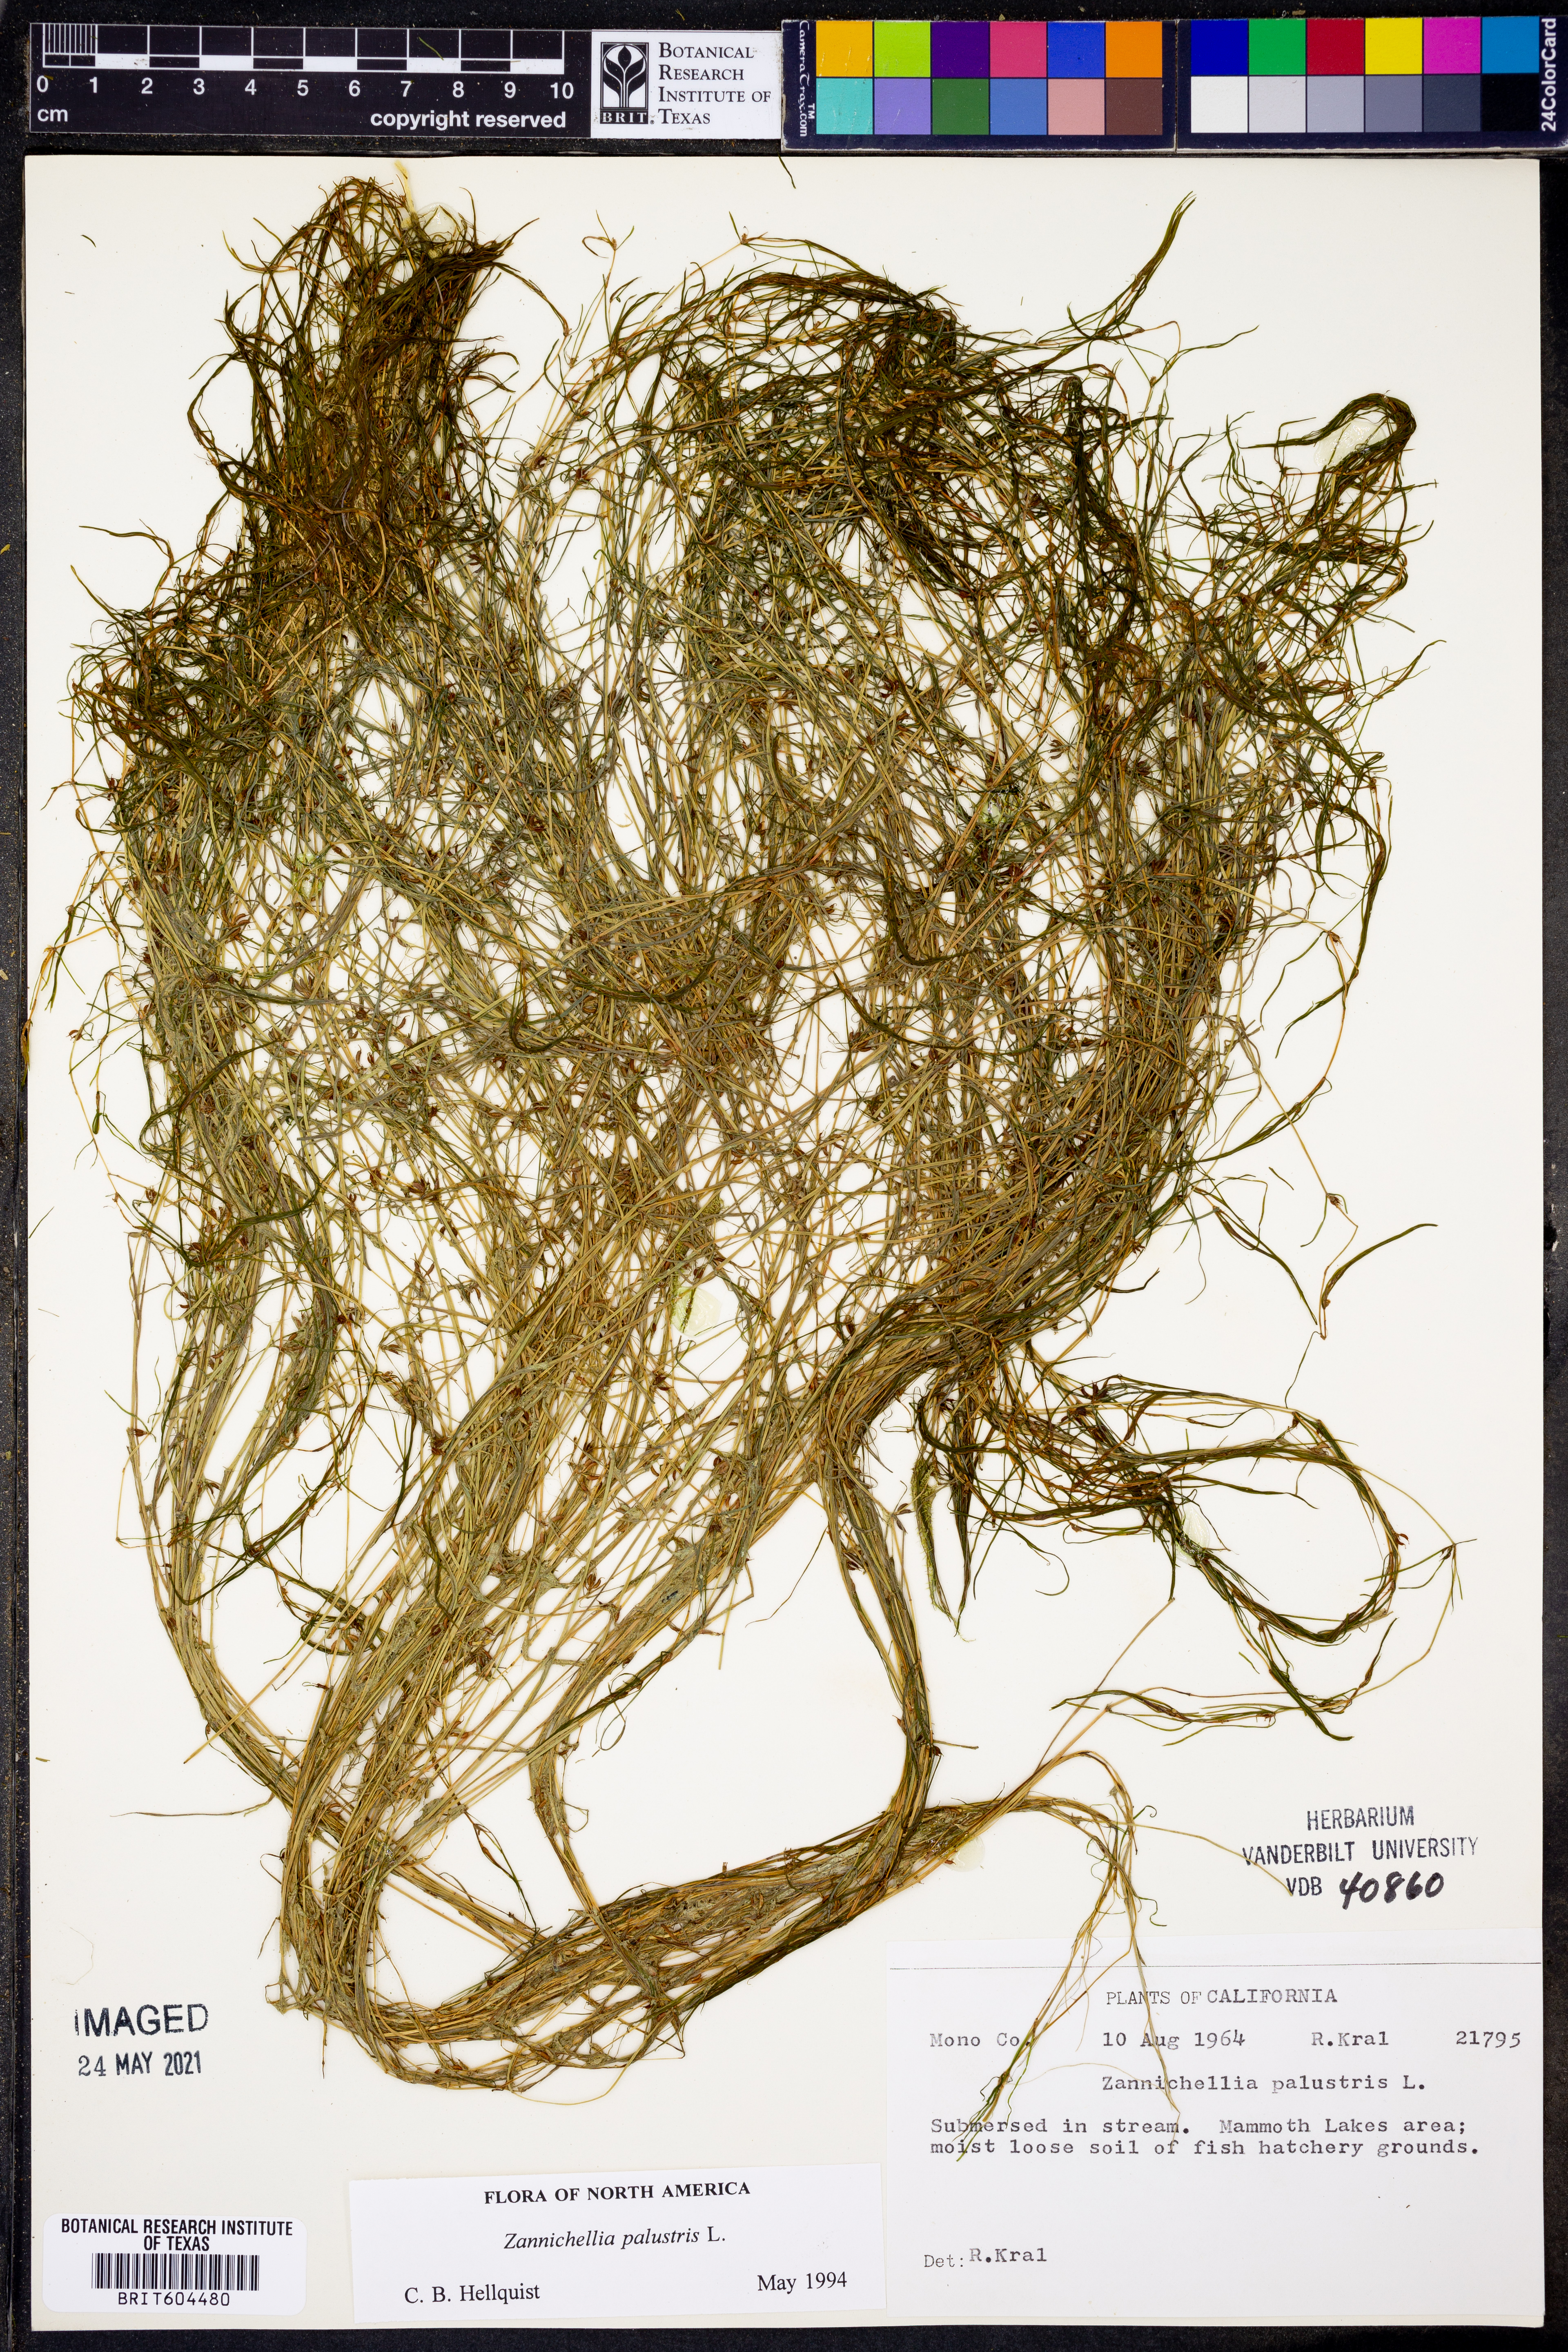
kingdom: Plantae
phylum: Tracheophyta
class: Liliopsida
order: Alismatales
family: Potamogetonaceae
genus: Zannichellia
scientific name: Zannichellia palustris
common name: Horned pondweed
